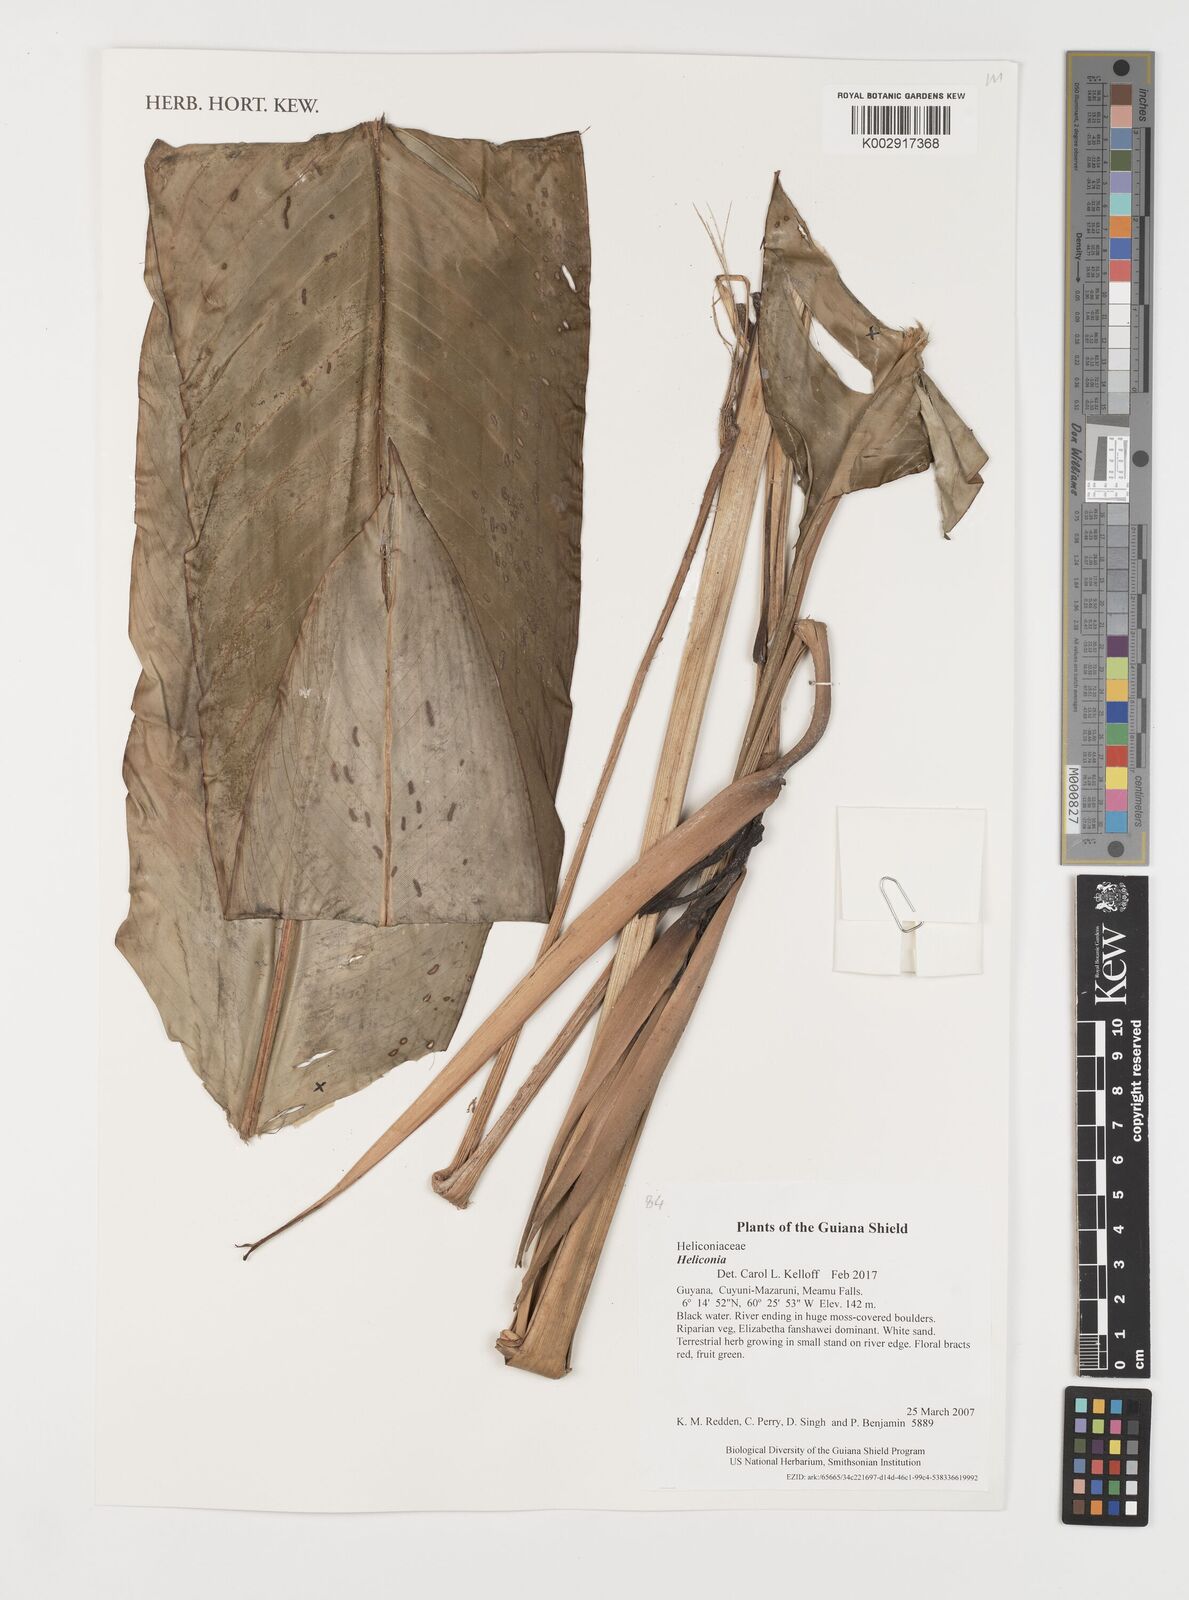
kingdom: Plantae
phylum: Tracheophyta
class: Liliopsida
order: Zingiberales
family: Heliconiaceae
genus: Heliconia
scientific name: Heliconia
